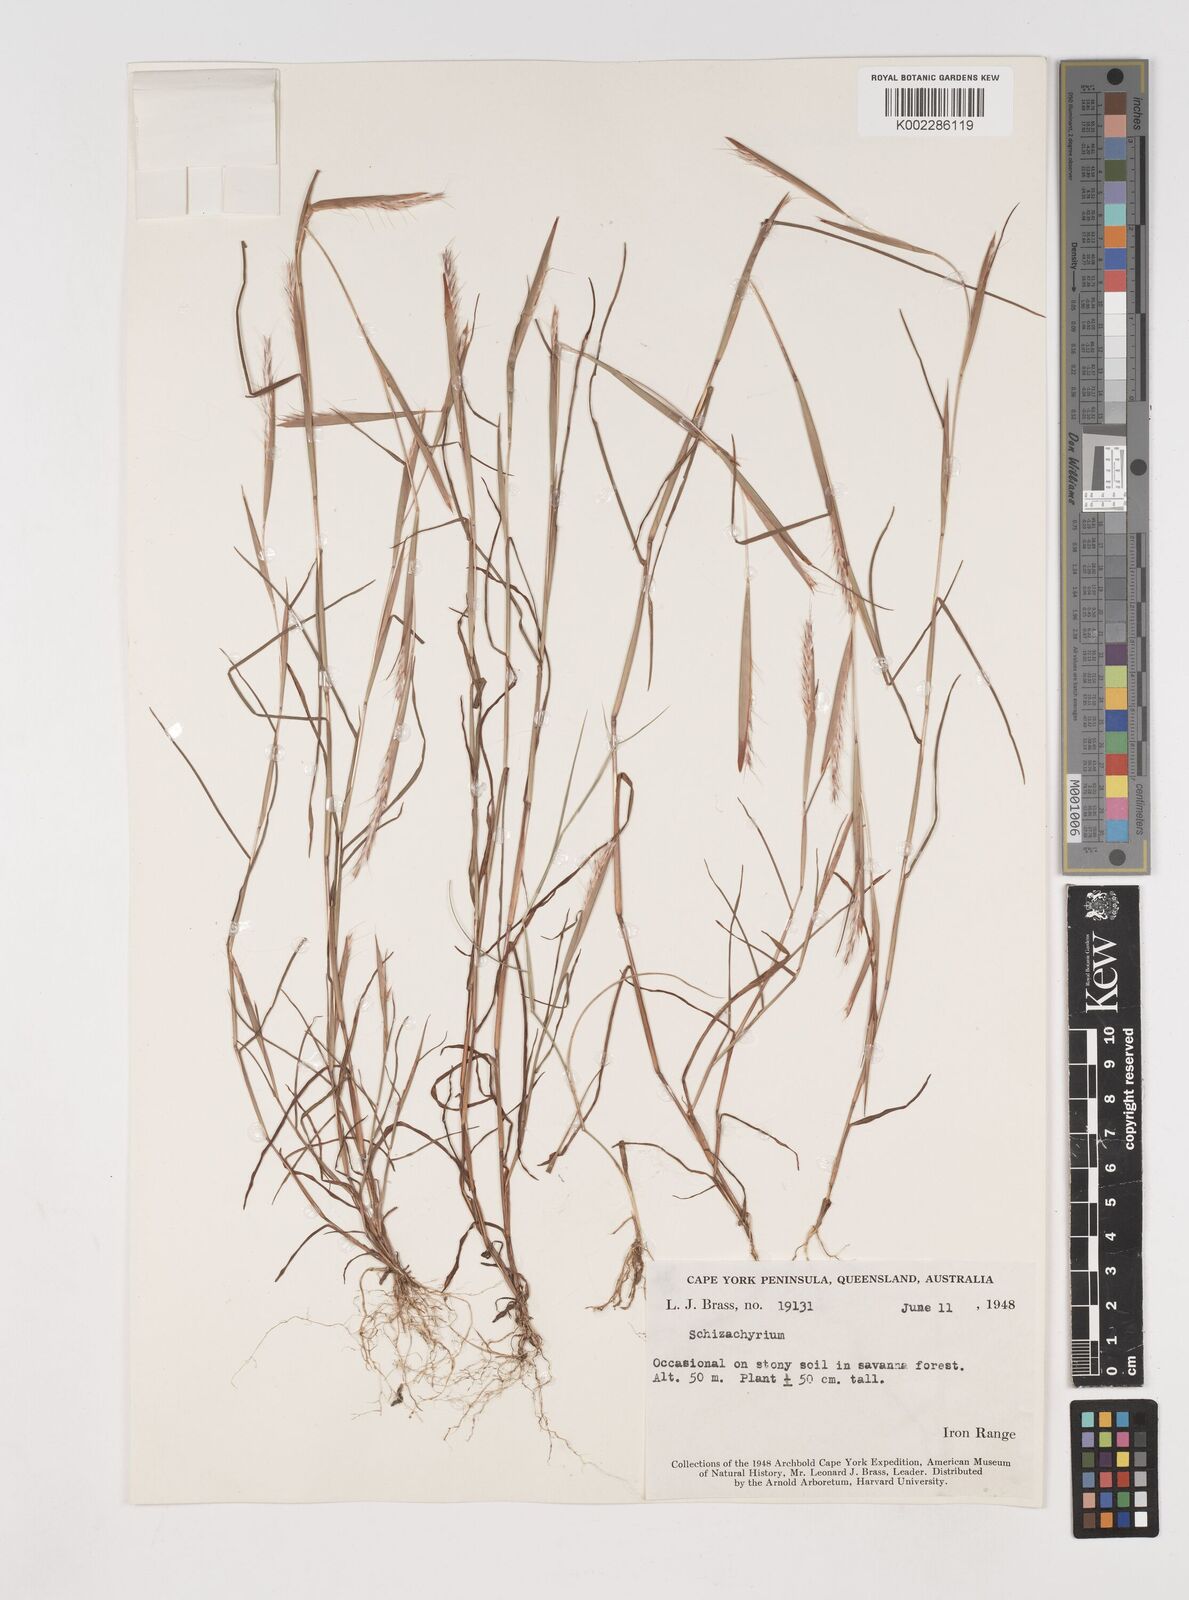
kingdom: Plantae
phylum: Tracheophyta
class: Liliopsida
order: Poales
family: Poaceae
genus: Schizachyrium
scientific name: Schizachyrium fragile
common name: Red spathe grass
